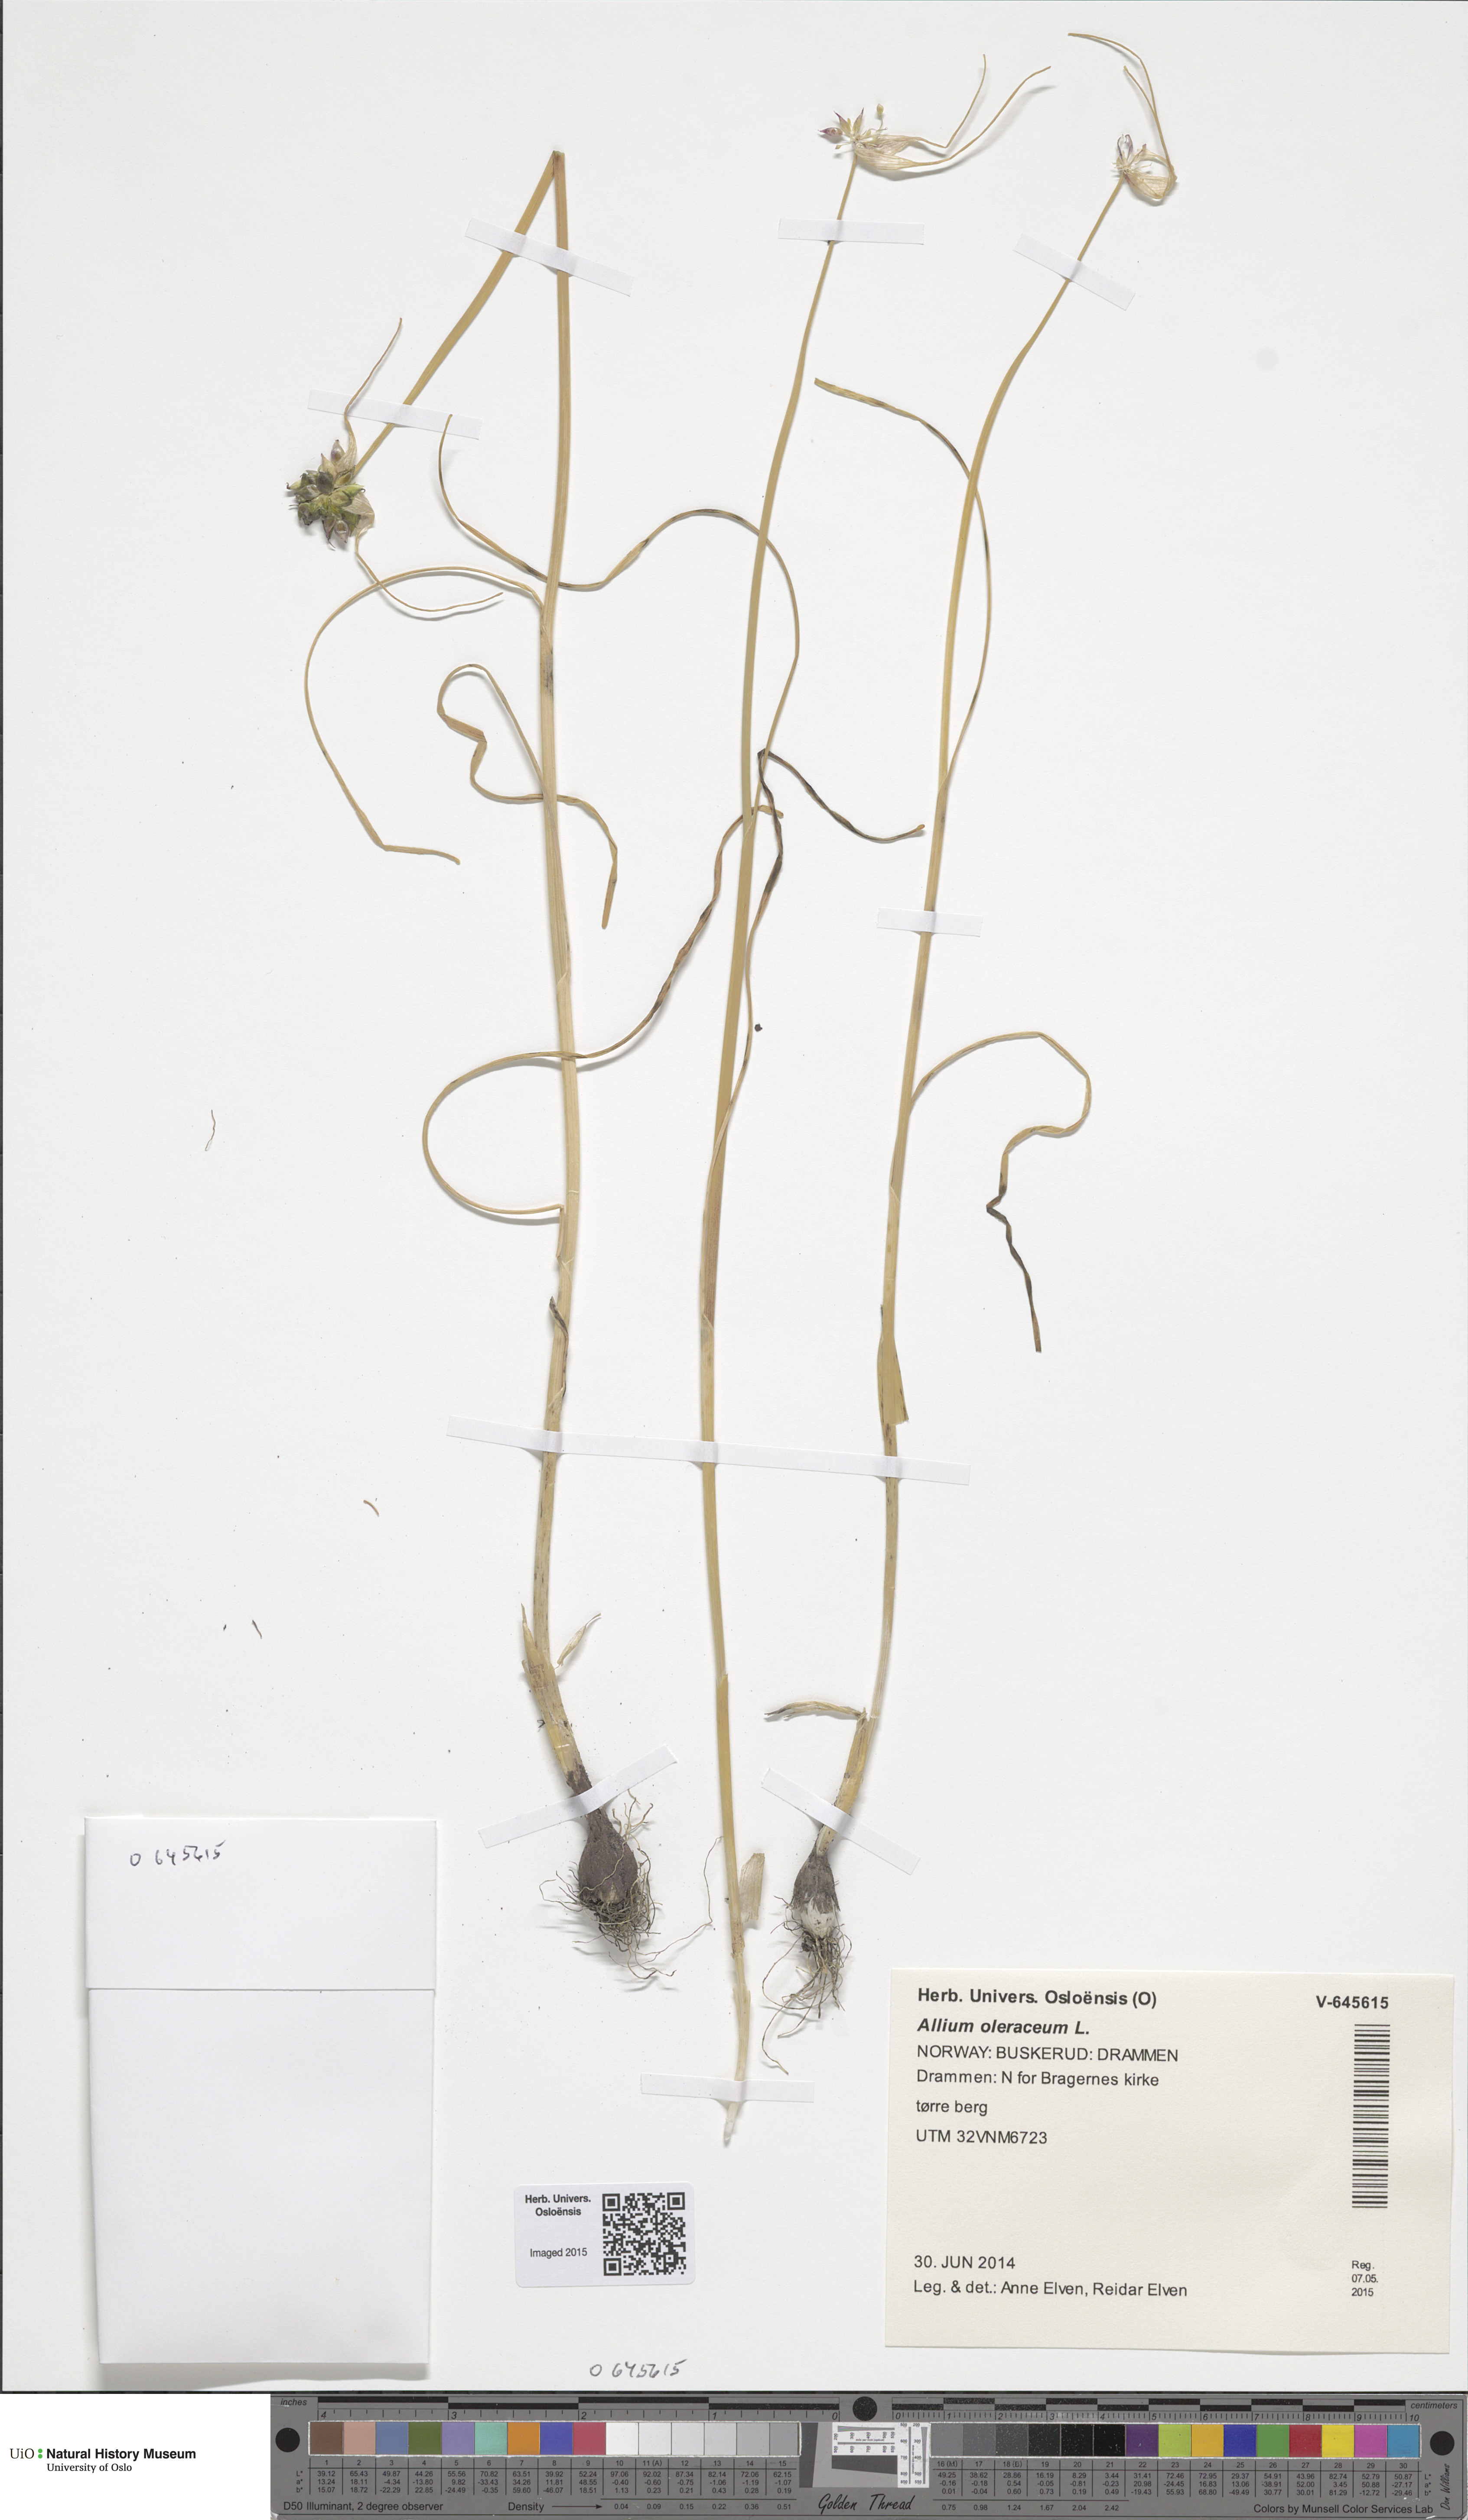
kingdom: Plantae
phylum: Tracheophyta
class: Liliopsida
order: Asparagales
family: Amaryllidaceae
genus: Allium
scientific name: Allium oleraceum
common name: Field garlic
